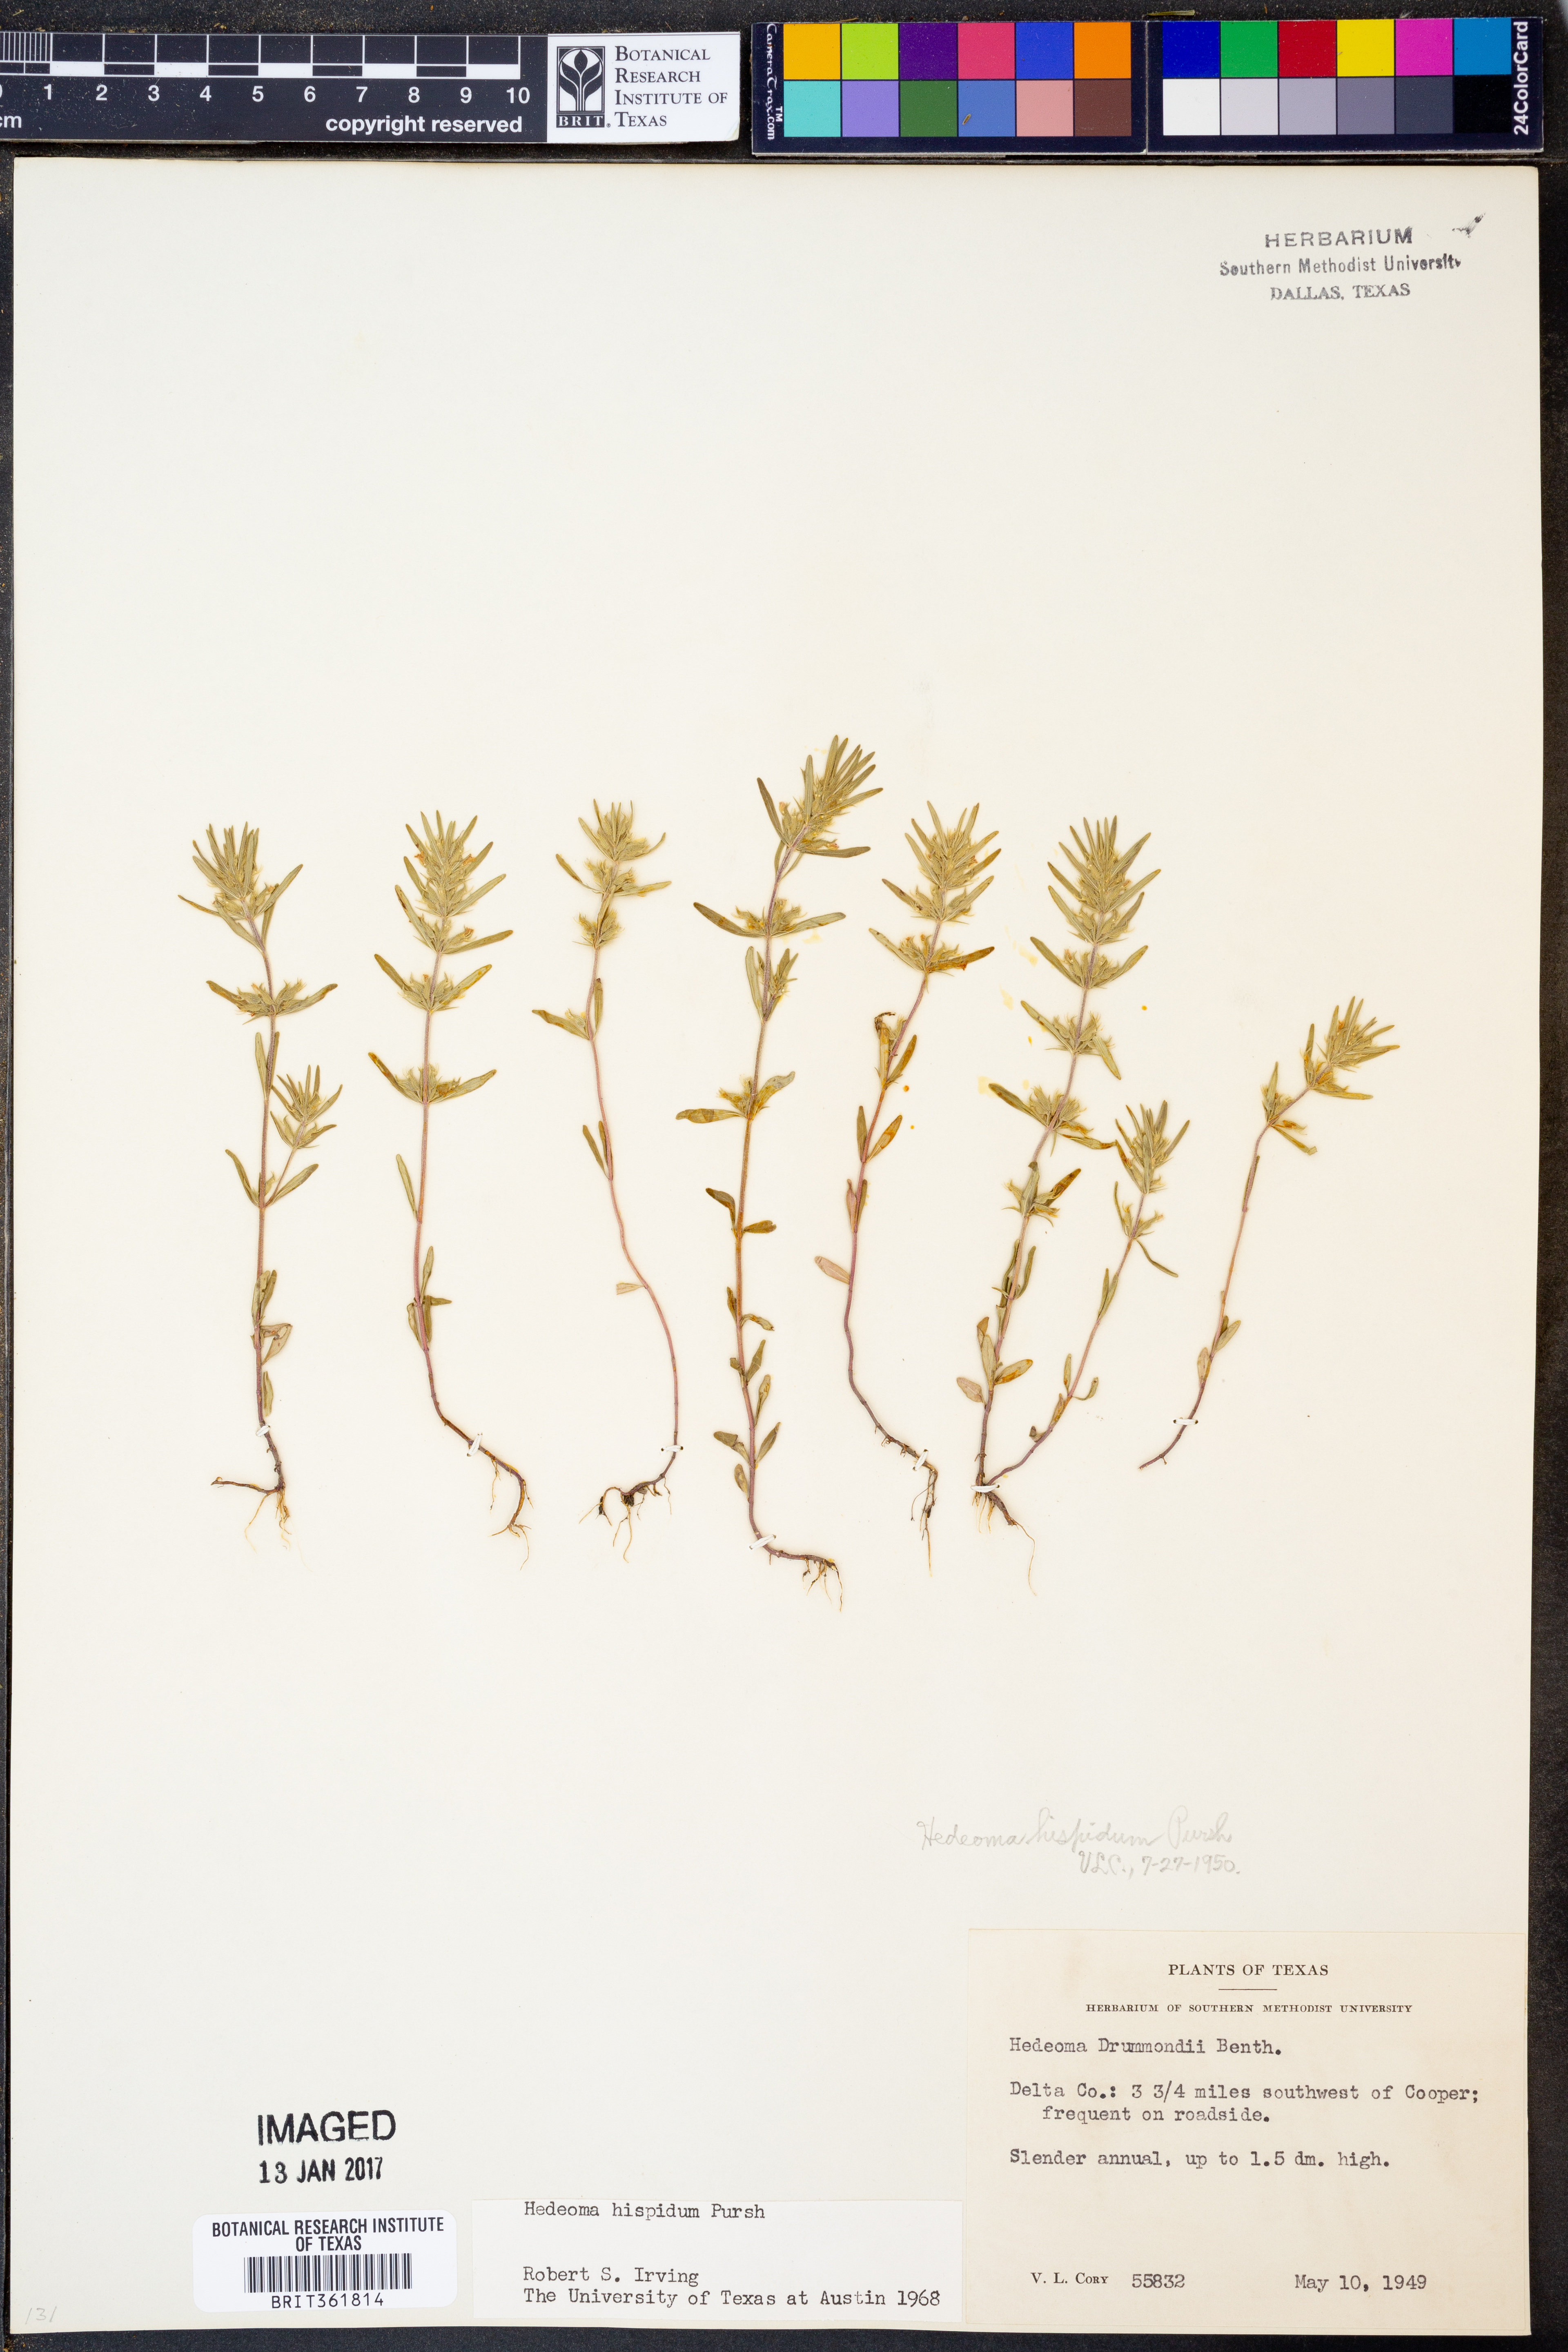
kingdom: Plantae
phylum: Tracheophyta
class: Magnoliopsida
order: Lamiales
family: Lamiaceae
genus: Hedeoma
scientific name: Hedeoma hispida
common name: Mock pennyroyal
